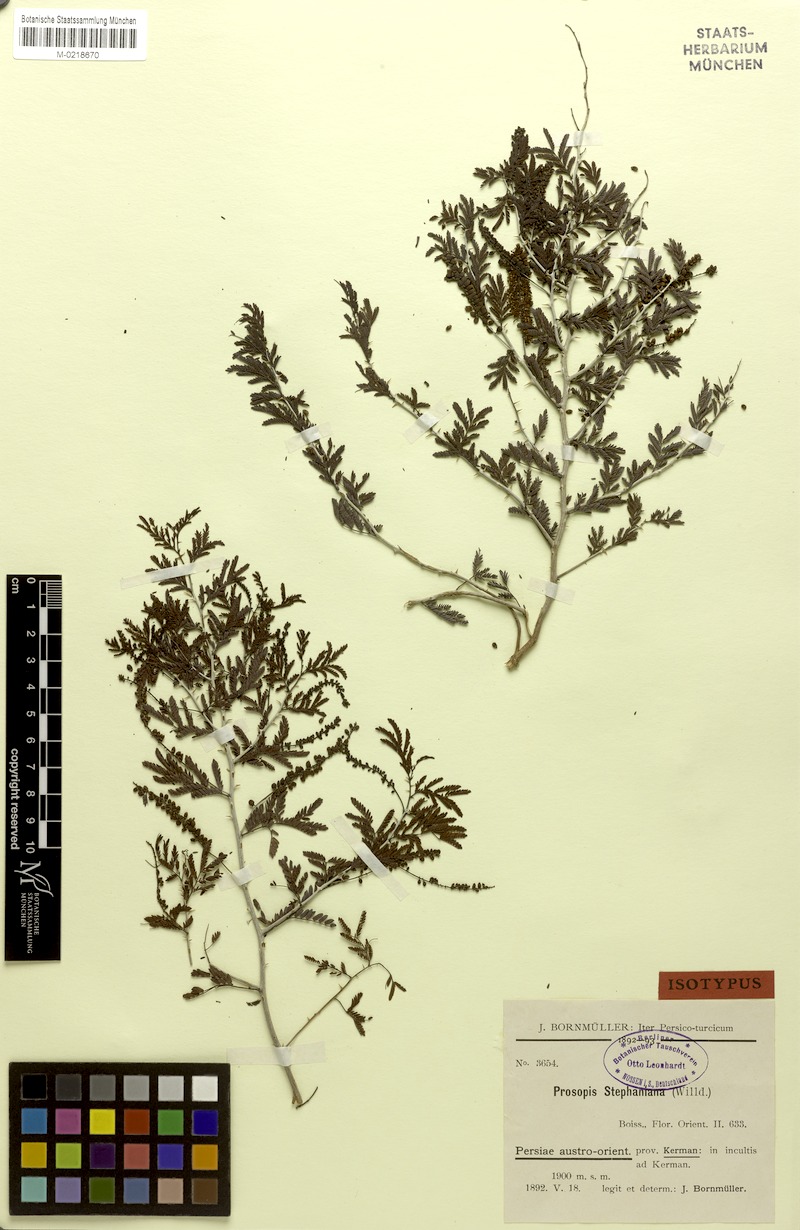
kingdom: Plantae
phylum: Tracheophyta
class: Magnoliopsida
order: Fabales
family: Fabaceae
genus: Prosopis
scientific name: Prosopis farcta
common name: Syrian mesquite
